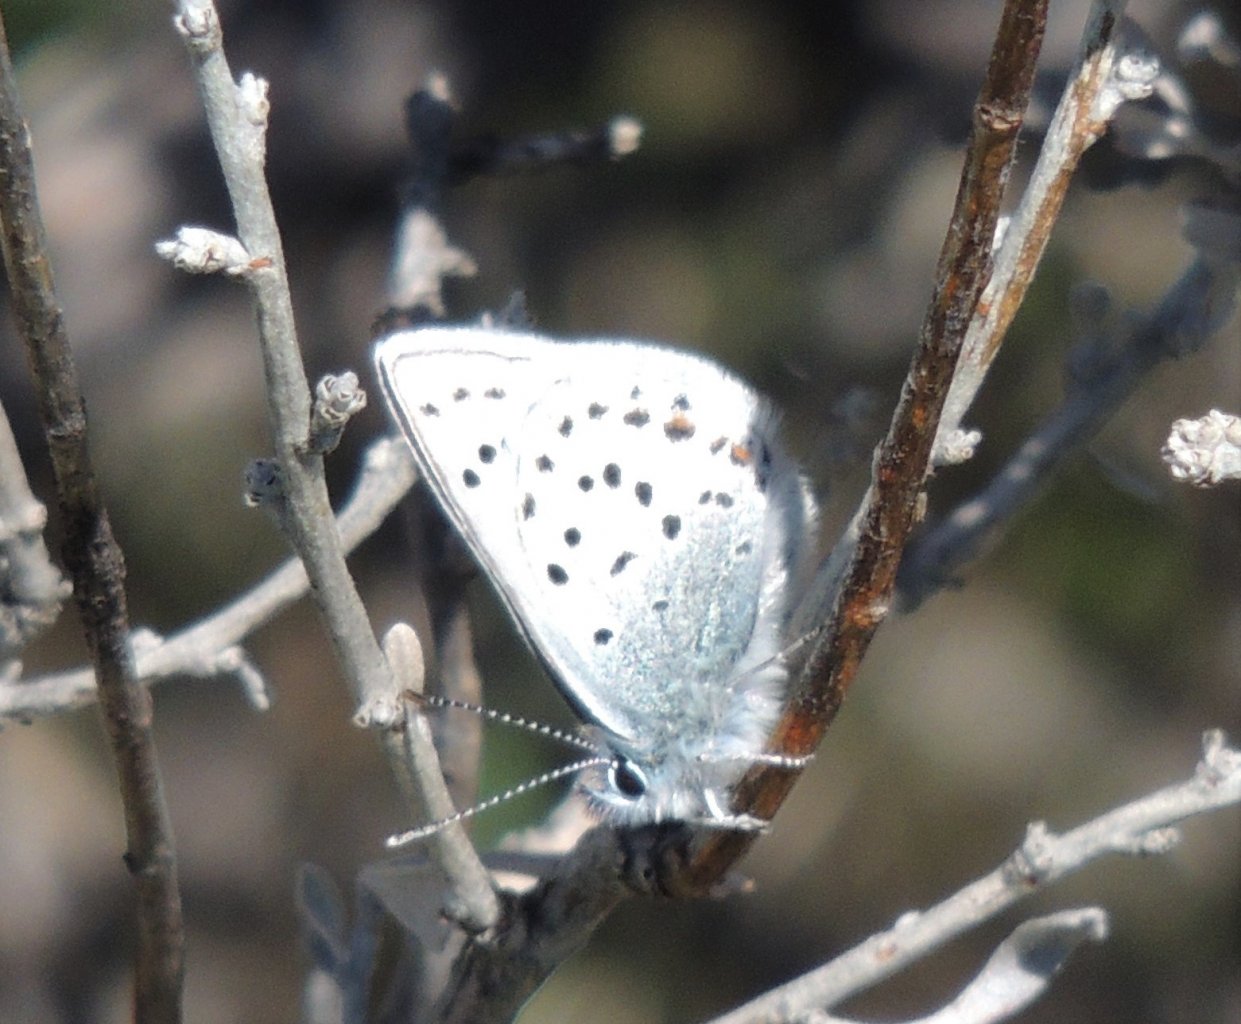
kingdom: Animalia
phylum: Arthropoda
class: Insecta
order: Lepidoptera
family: Lycaenidae
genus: Plebejus
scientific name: Plebejus saepiolus
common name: Greenish Blue
